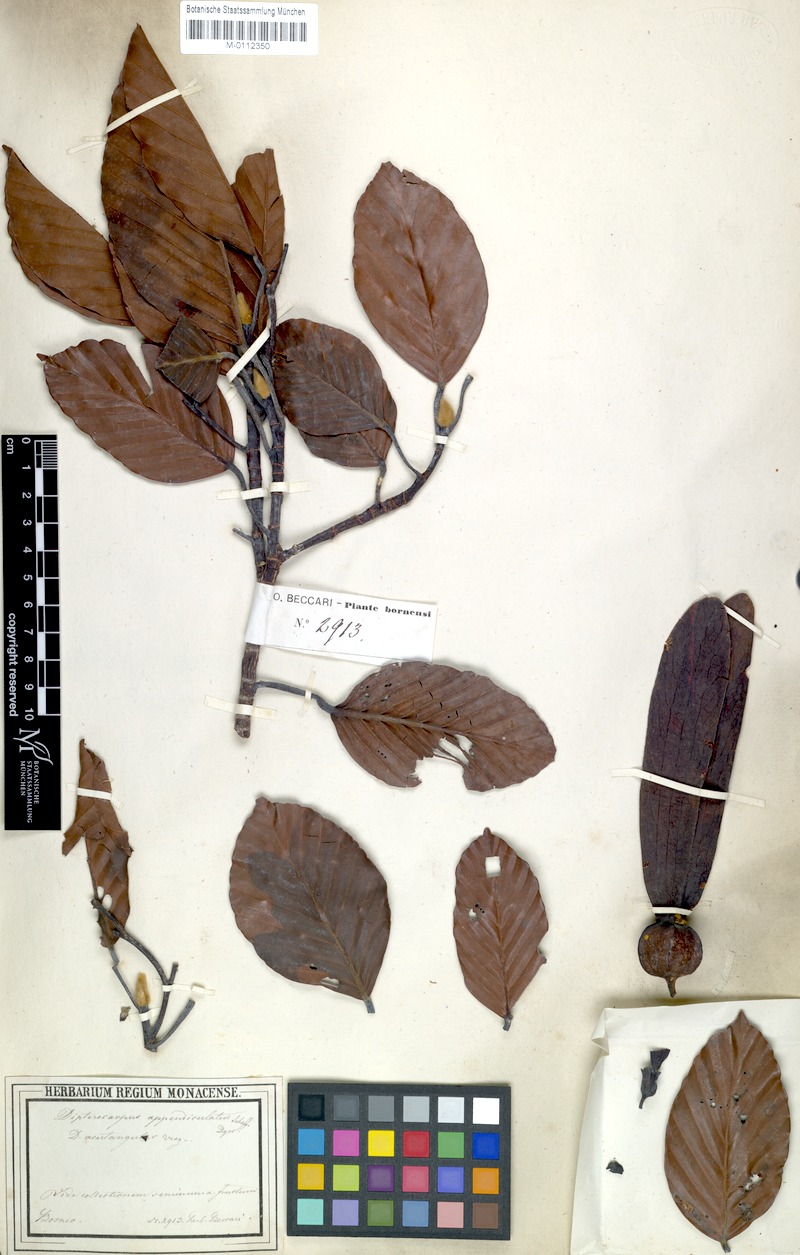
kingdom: Plantae
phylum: Tracheophyta
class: Magnoliopsida
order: Malvales
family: Dipterocarpaceae
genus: Dipterocarpus
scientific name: Dipterocarpus eurhynchus
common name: Keruing
